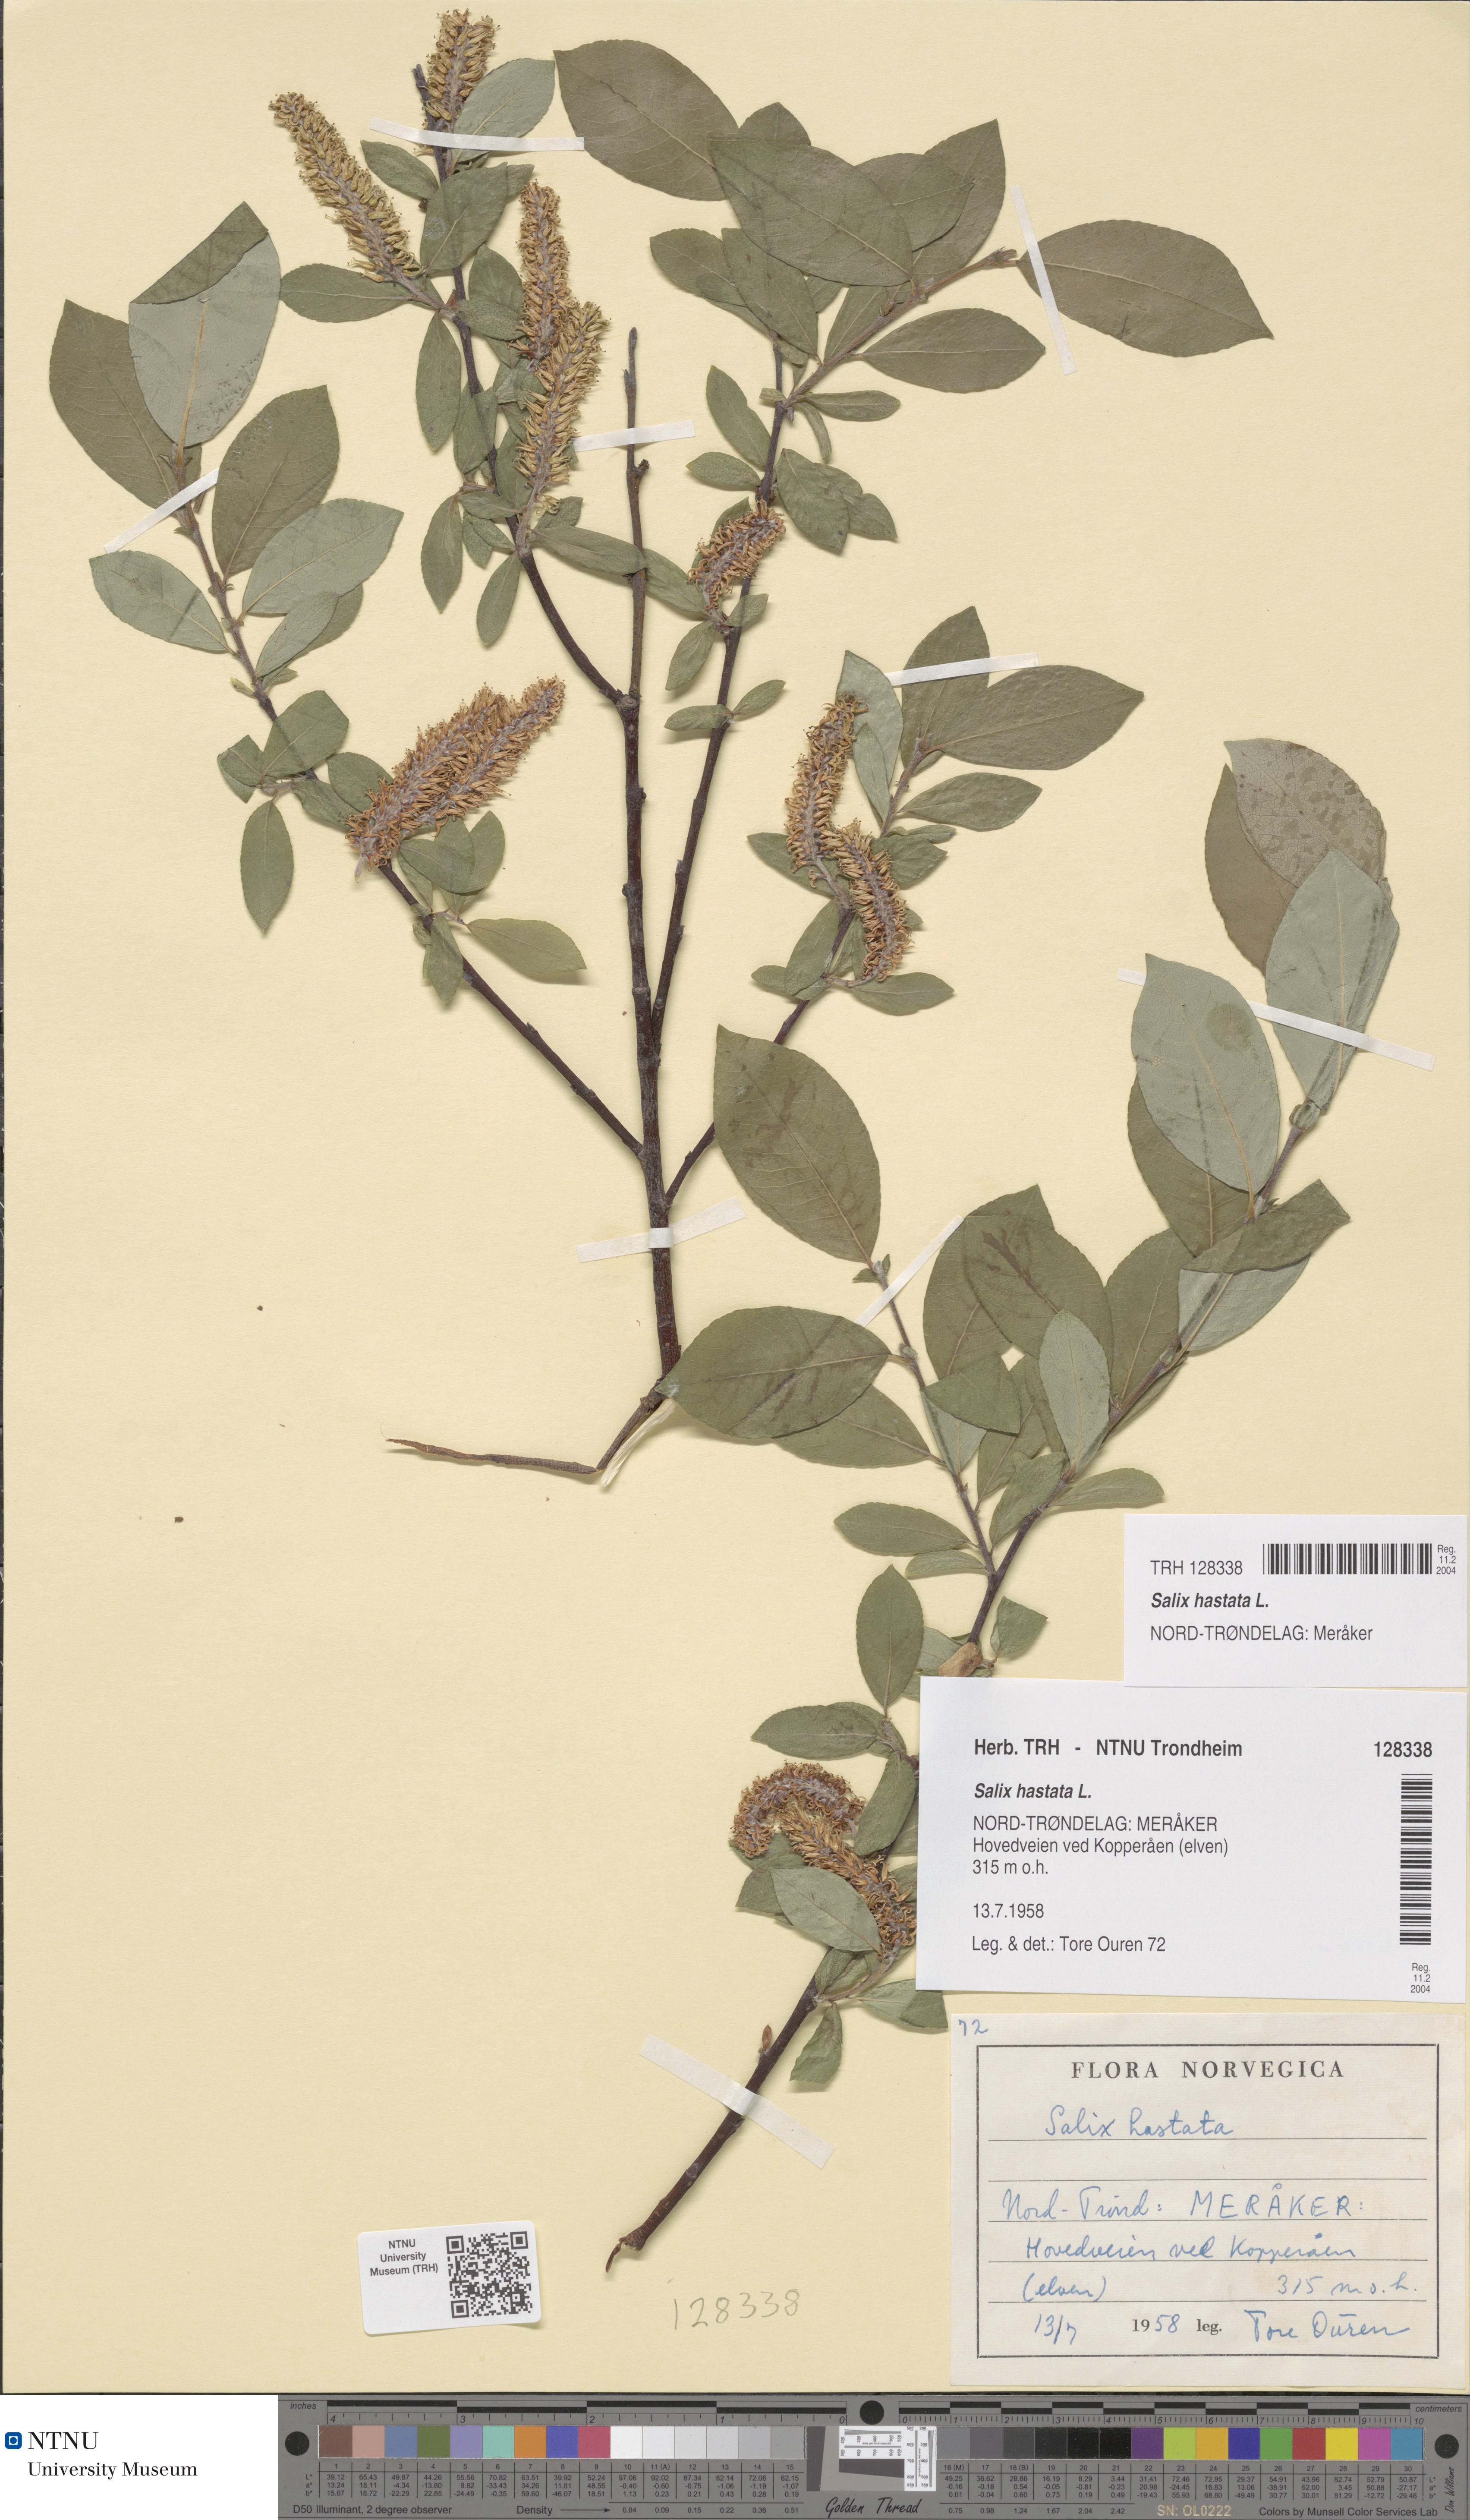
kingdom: Plantae
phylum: Tracheophyta
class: Magnoliopsida
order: Malpighiales
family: Salicaceae
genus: Salix
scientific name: Salix hastata
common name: Halberd willow
